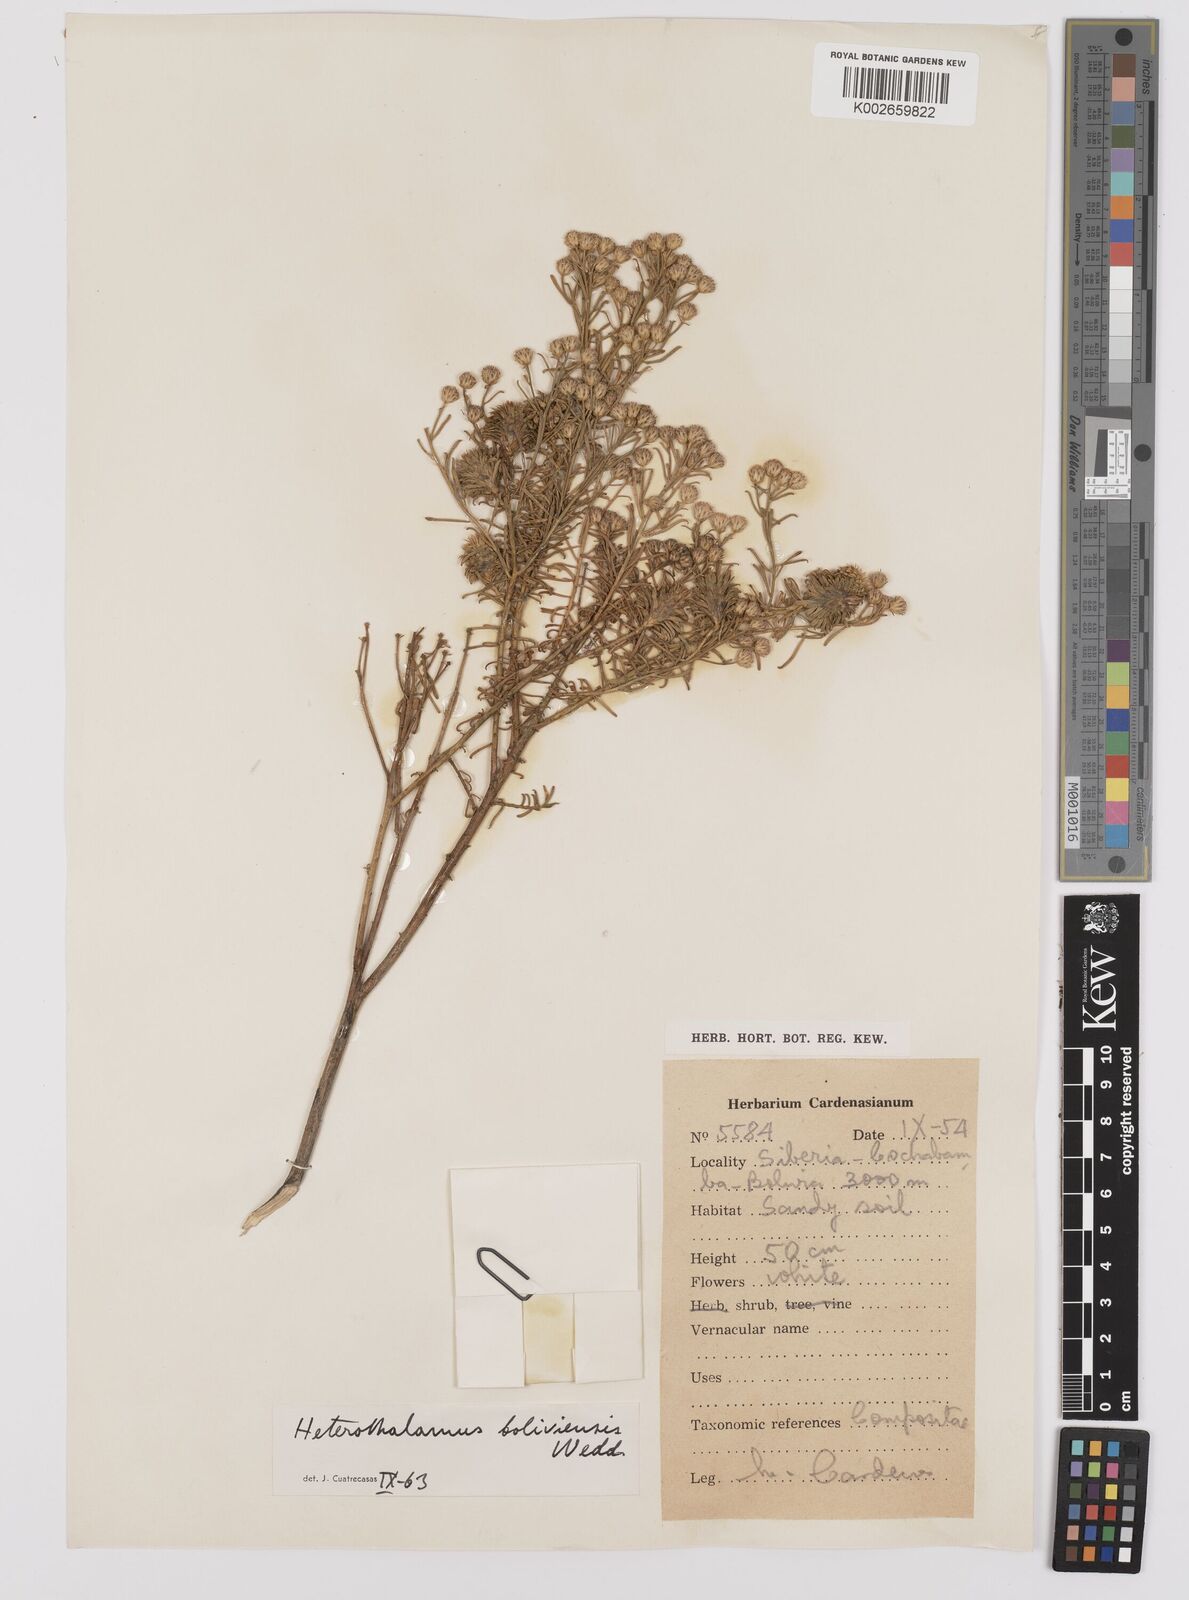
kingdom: Plantae
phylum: Tracheophyta
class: Magnoliopsida
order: Asterales
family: Asteraceae
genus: Baccharis
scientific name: Baccharis bolivensis
